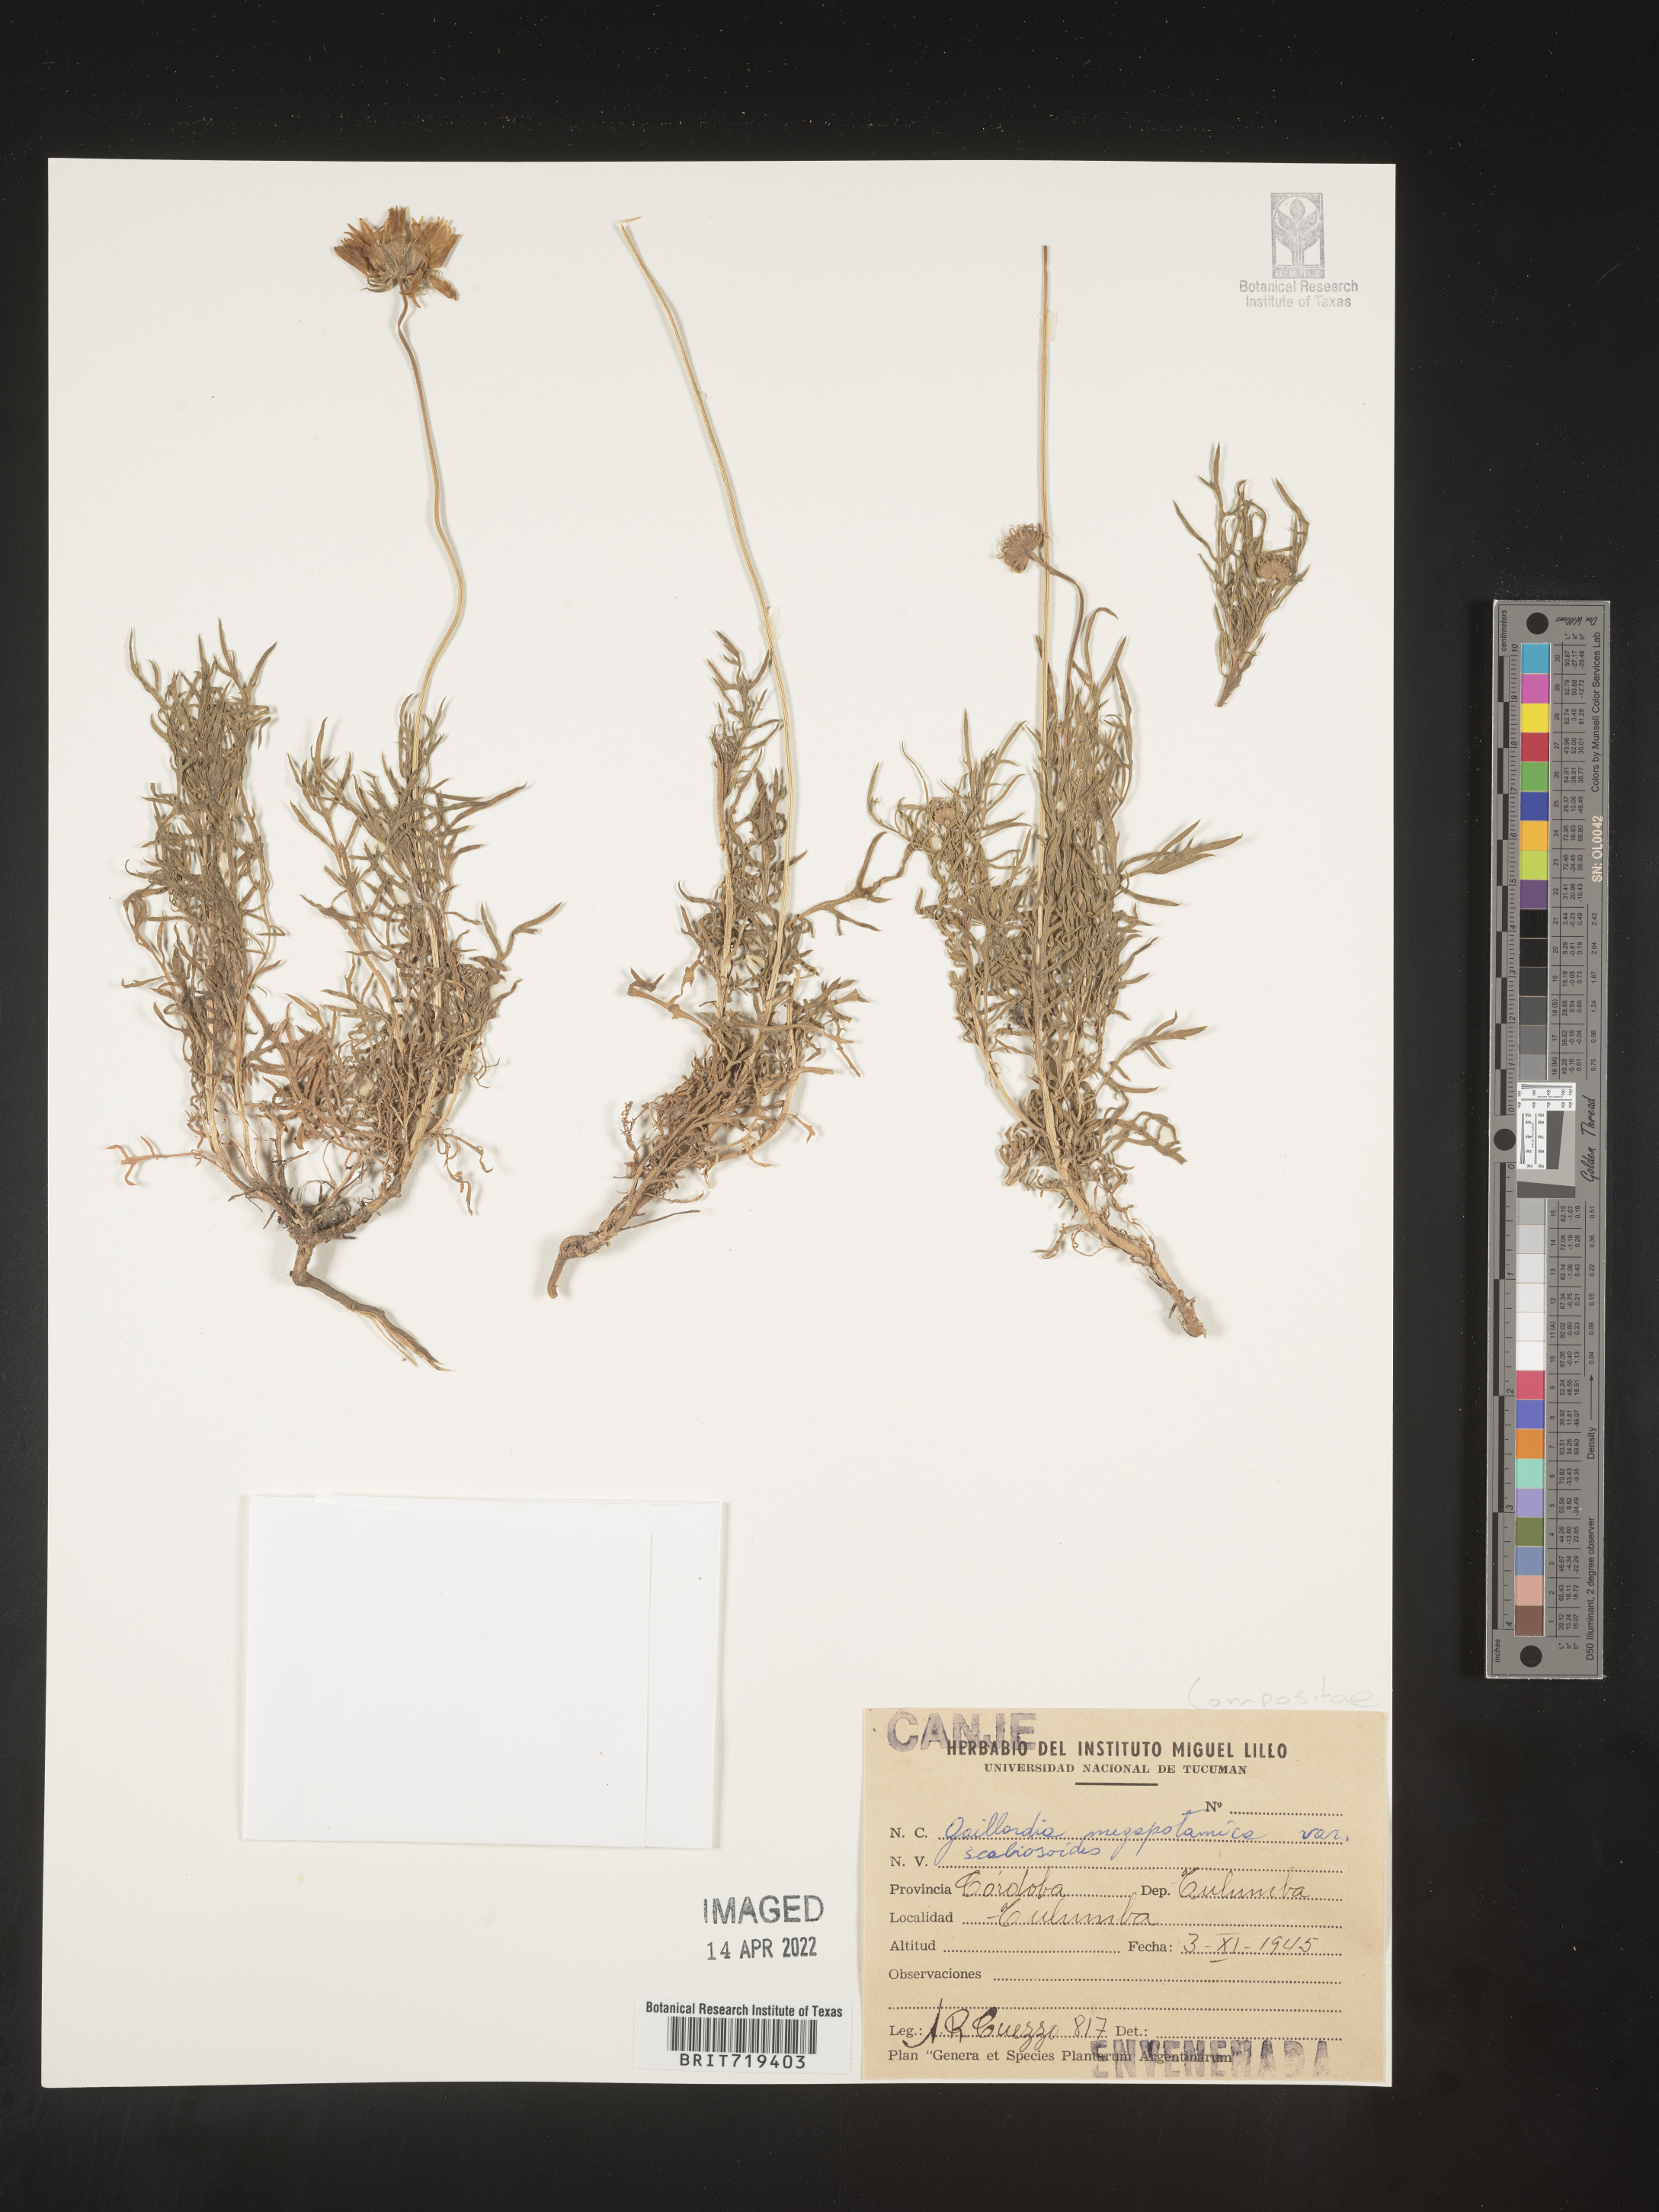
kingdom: Plantae
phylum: Tracheophyta
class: Magnoliopsida
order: Asterales
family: Asteraceae
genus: Gaillardia
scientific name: Gaillardia
